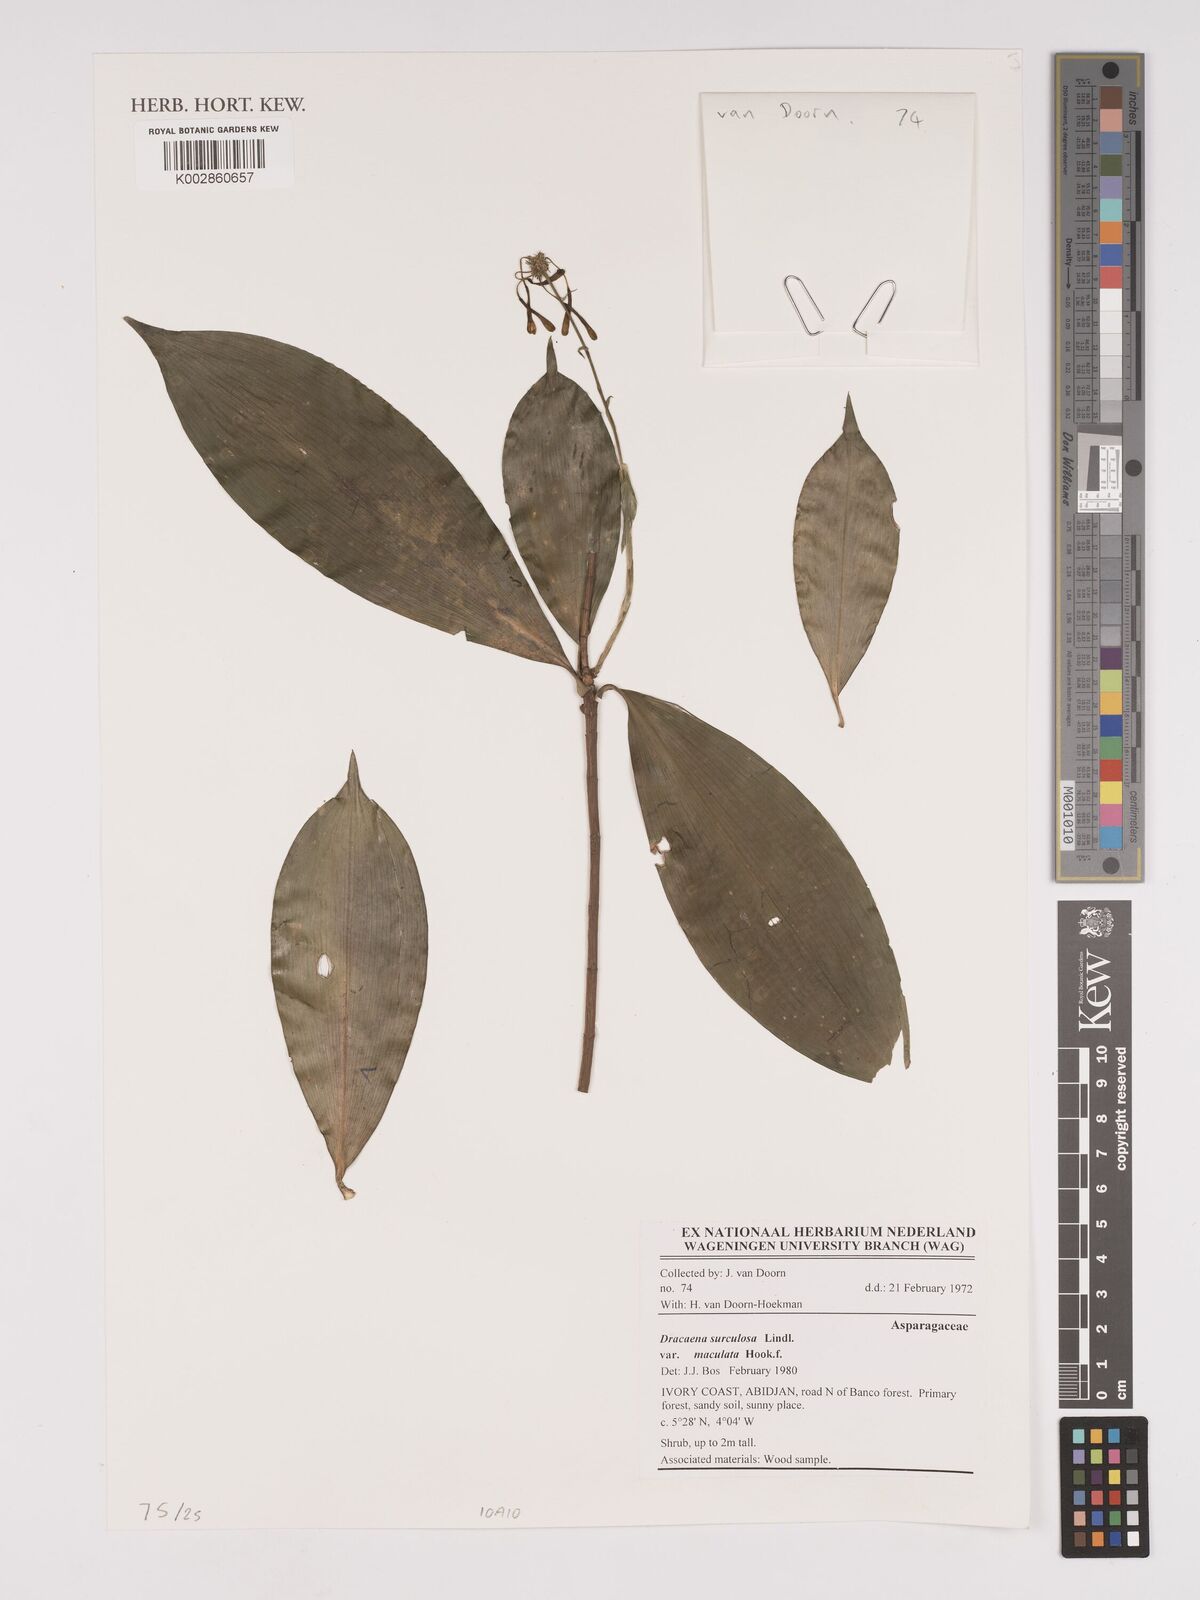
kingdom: Plantae
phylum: Tracheophyta
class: Liliopsida
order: Asparagales
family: Asparagaceae
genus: Dracaena
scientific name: Dracaena surculosa
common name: Spotted dracaena
